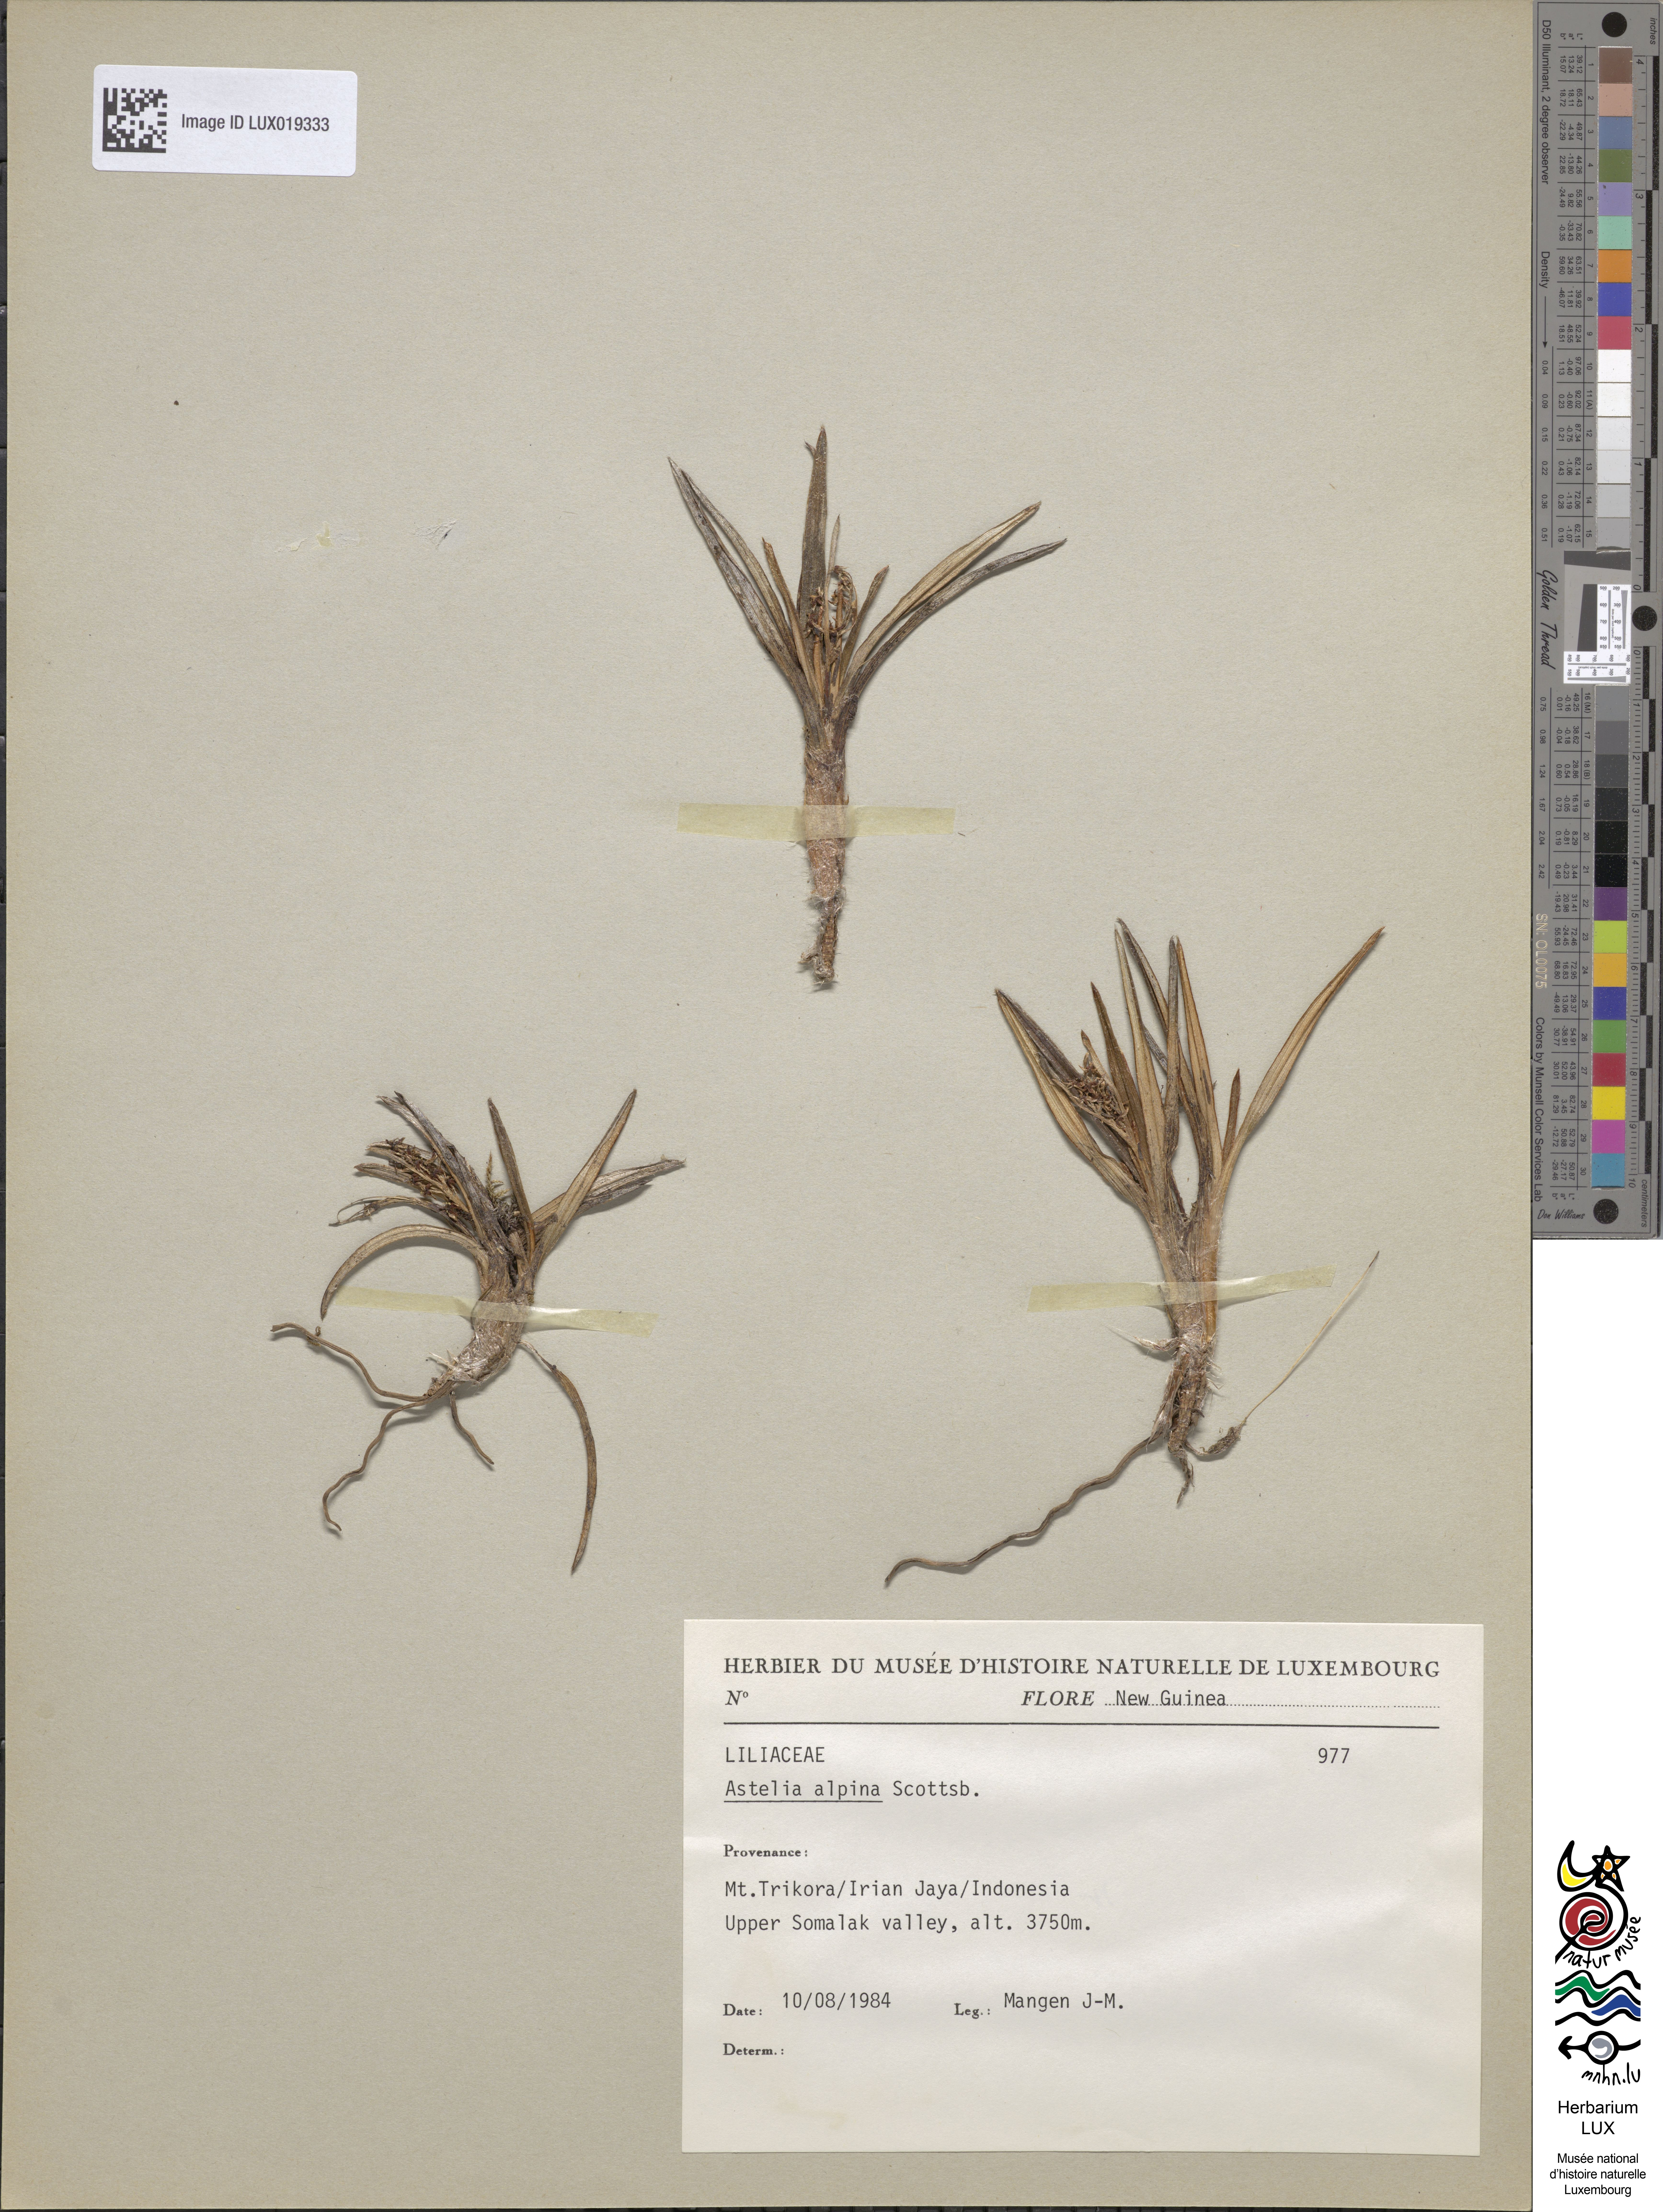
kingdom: Plantae
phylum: Tracheophyta
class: Liliopsida
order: Asparagales
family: Asteliaceae
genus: Astelia
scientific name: Astelia alpina
